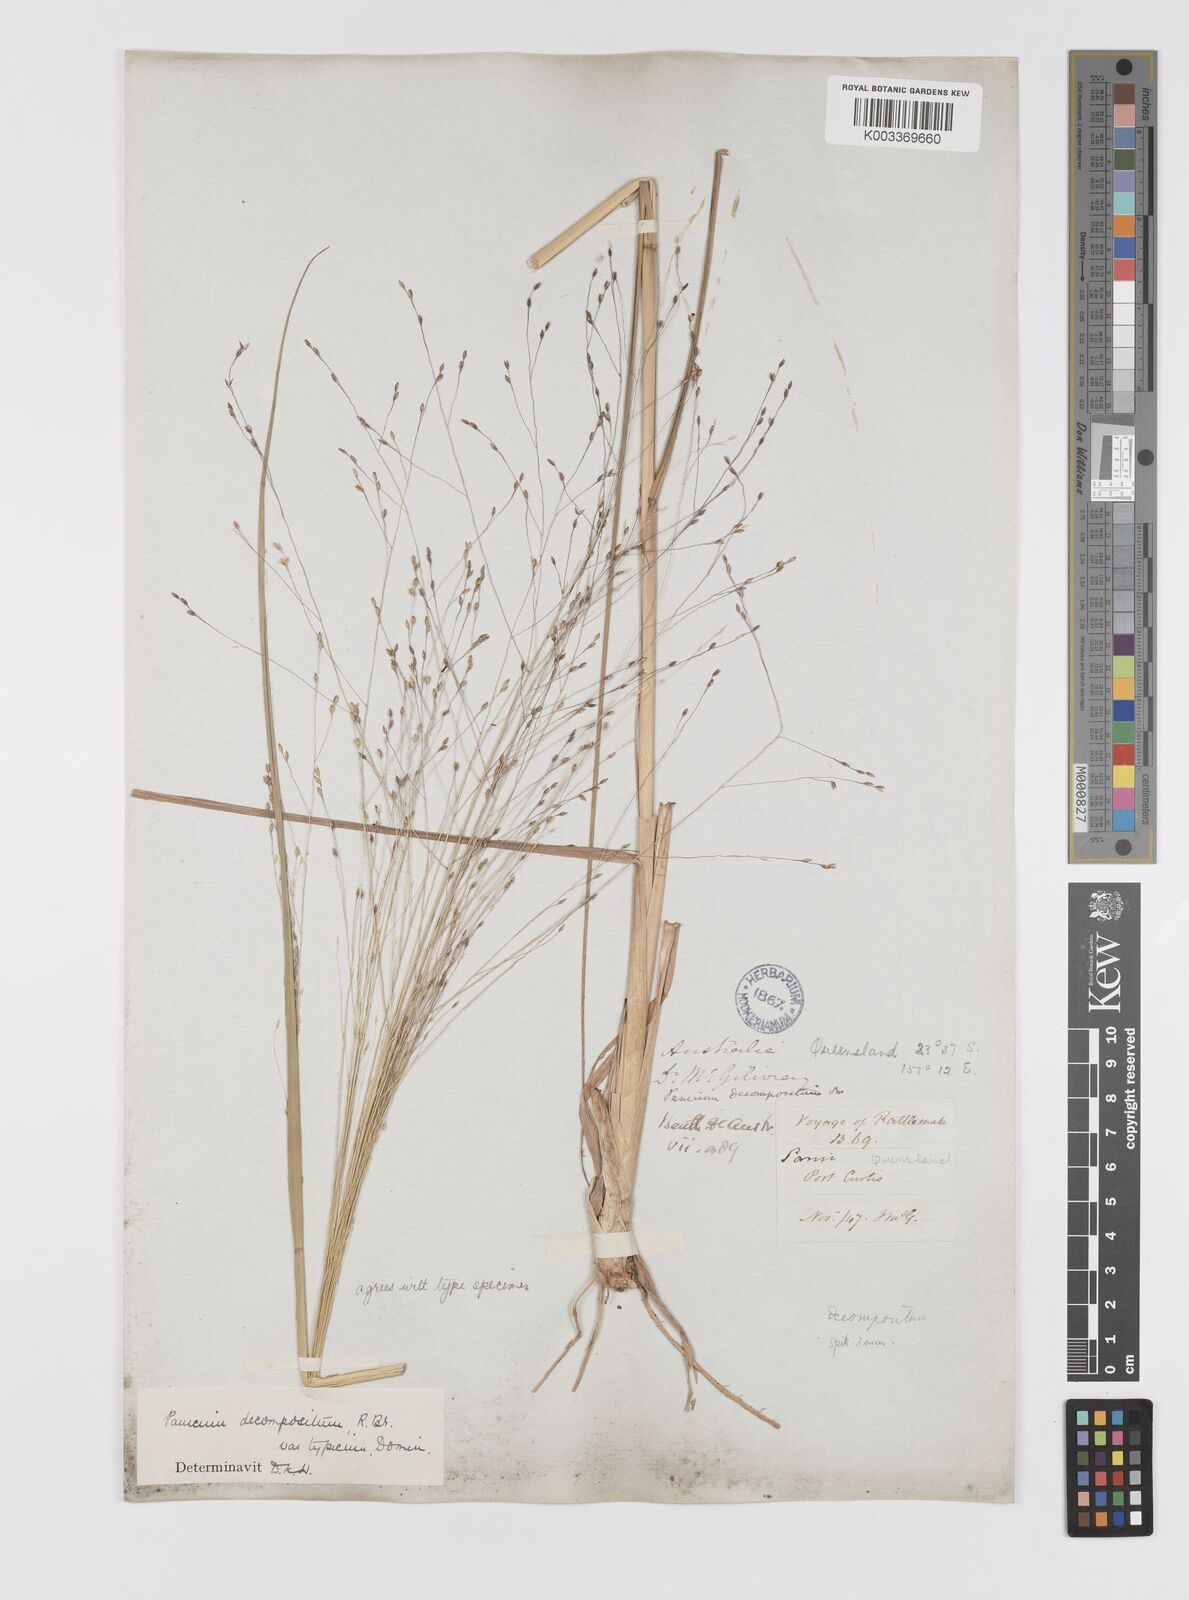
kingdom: Plantae
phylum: Tracheophyta
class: Liliopsida
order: Poales
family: Poaceae
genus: Panicum
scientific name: Panicum decompositum
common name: Australian millet
